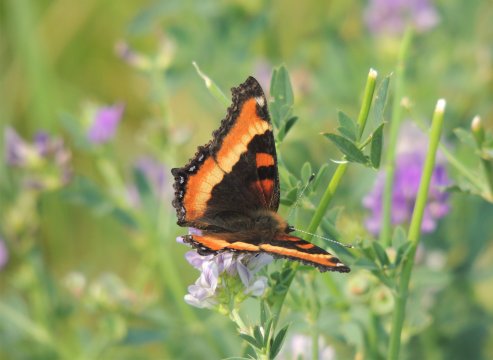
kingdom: Animalia
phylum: Arthropoda
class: Insecta
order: Lepidoptera
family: Nymphalidae
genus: Aglais
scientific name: Aglais milberti
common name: Milbert's Tortoiseshell
